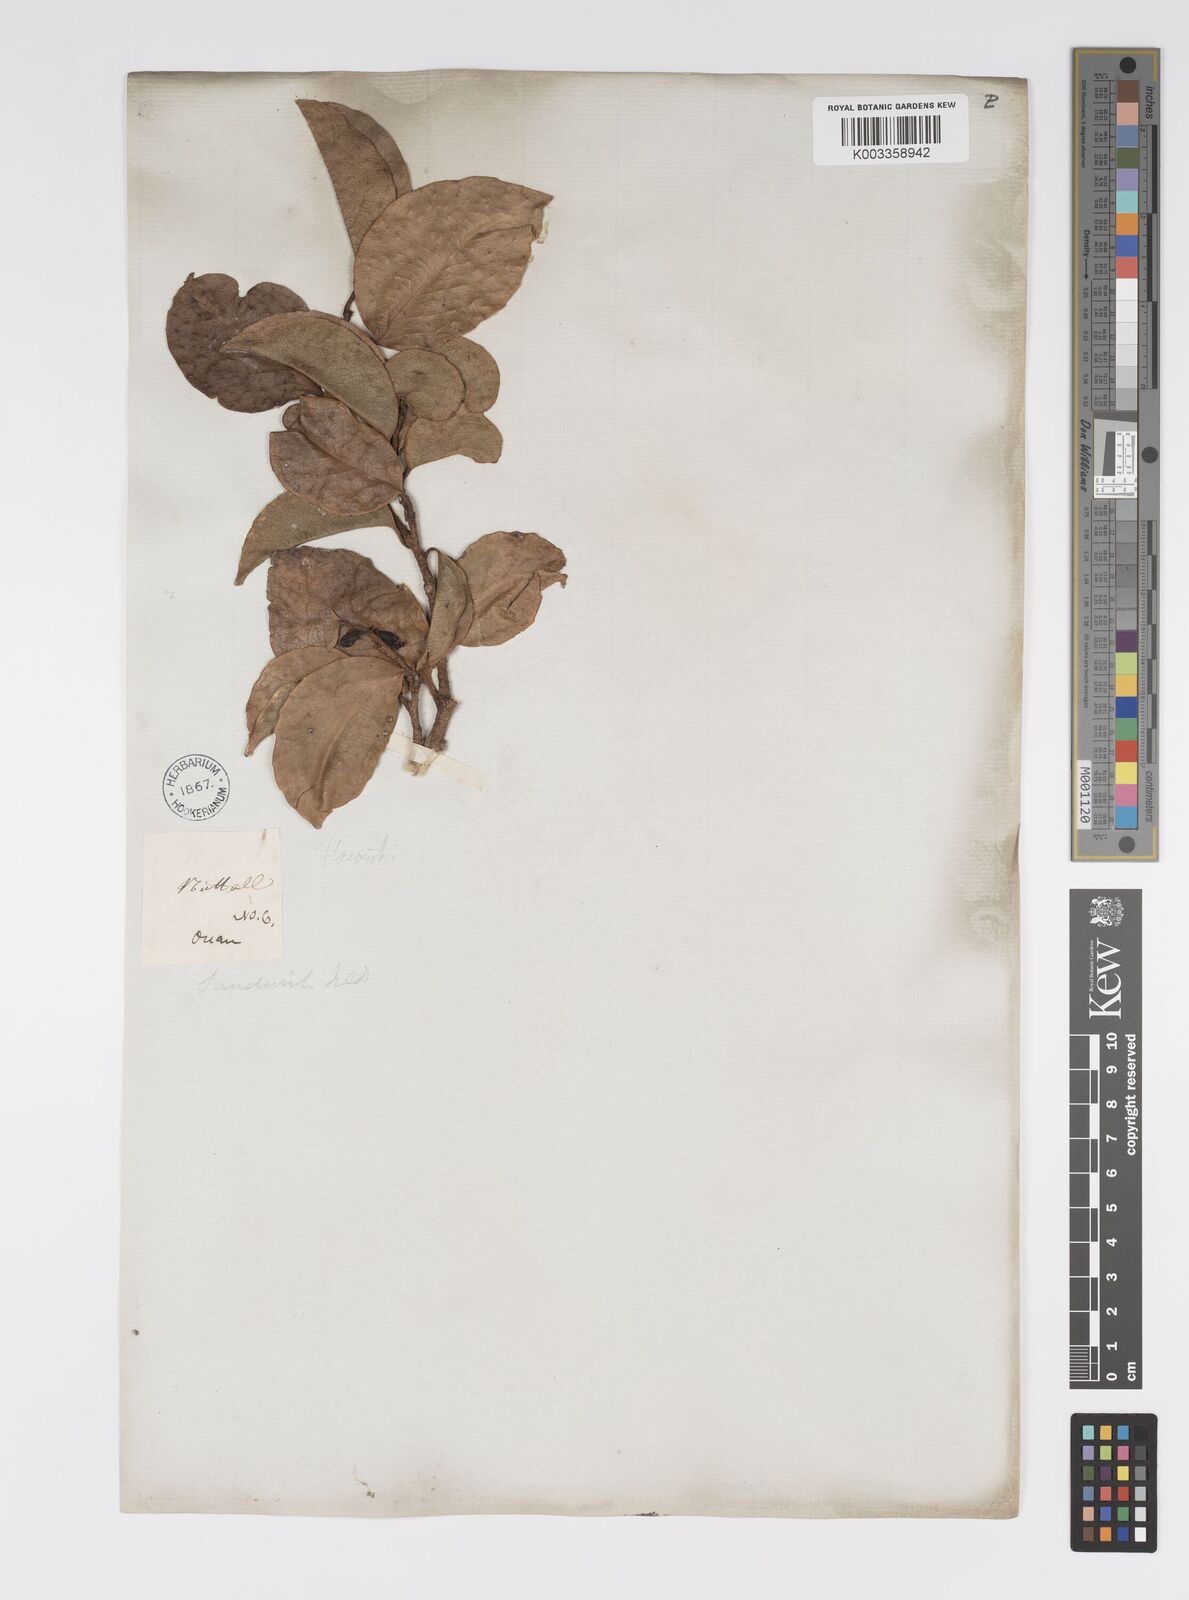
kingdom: Plantae
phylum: Tracheophyta
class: Magnoliopsida
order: Malpighiales
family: Salicaceae
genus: Xylosma
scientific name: Xylosma hawaiense
